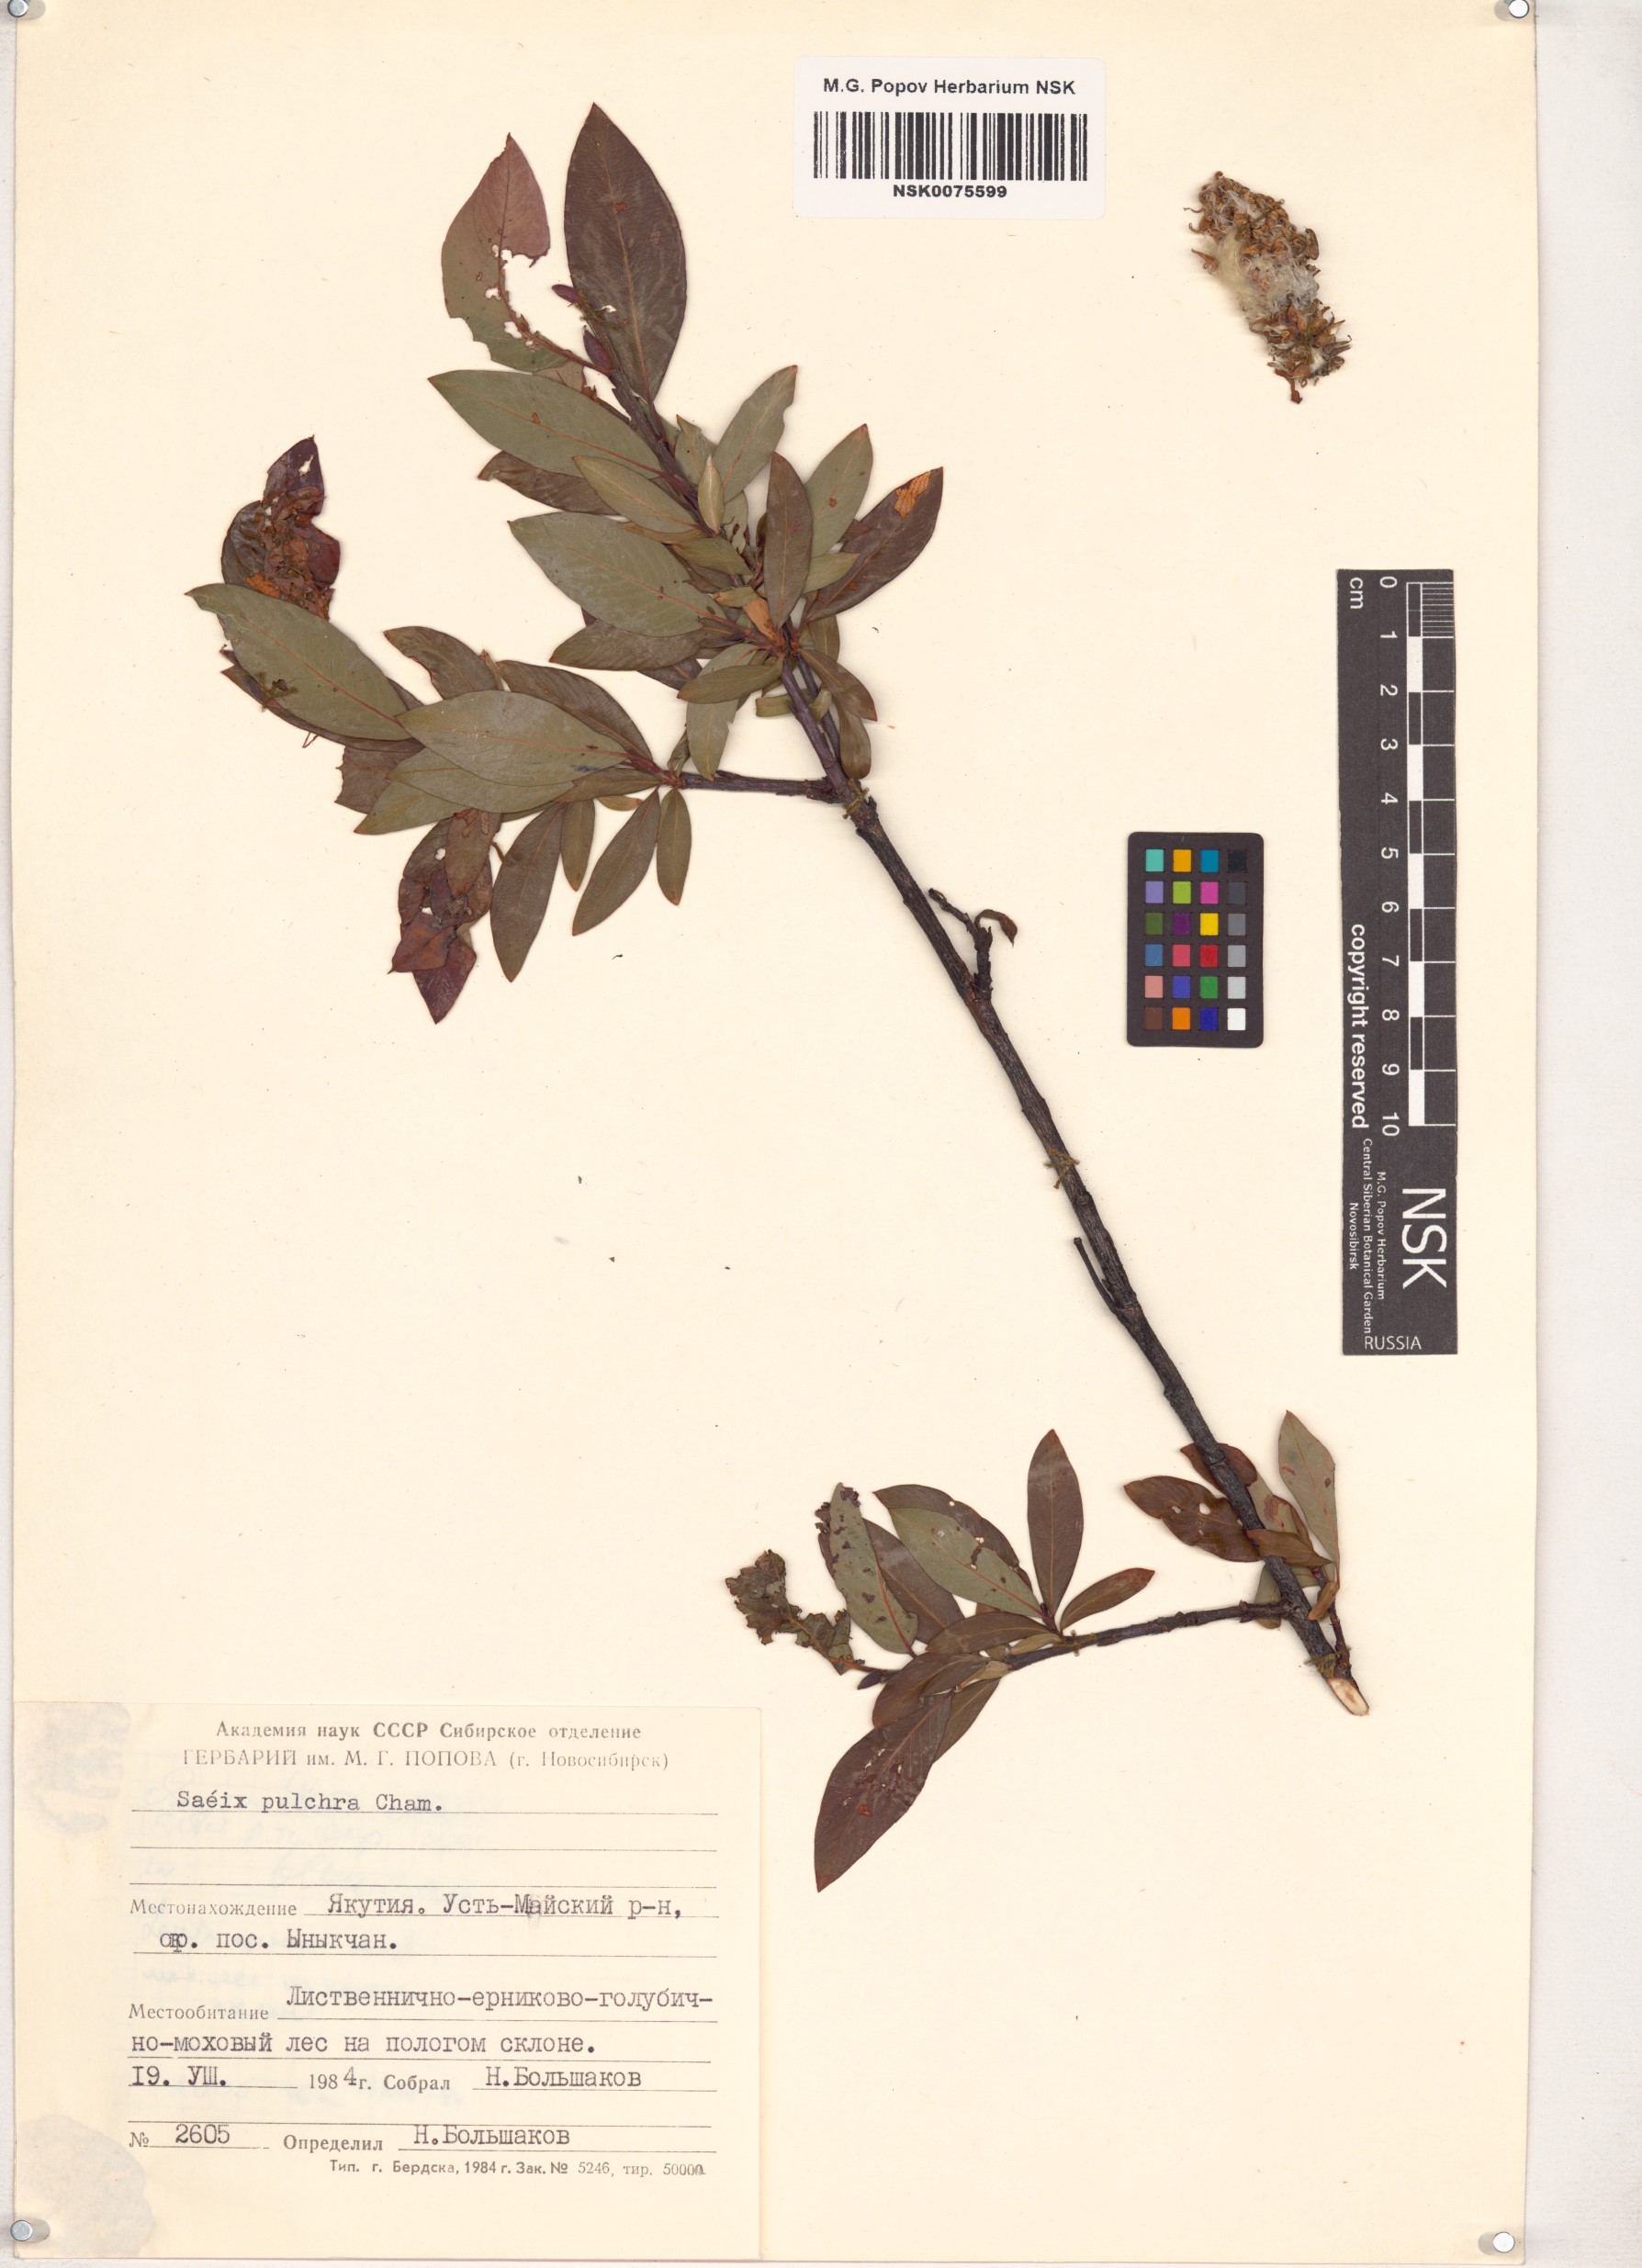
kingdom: Plantae
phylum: Tracheophyta
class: Magnoliopsida
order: Malpighiales
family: Salicaceae
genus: Salix
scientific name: Salix pulchra
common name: Diamond-leaved willow
